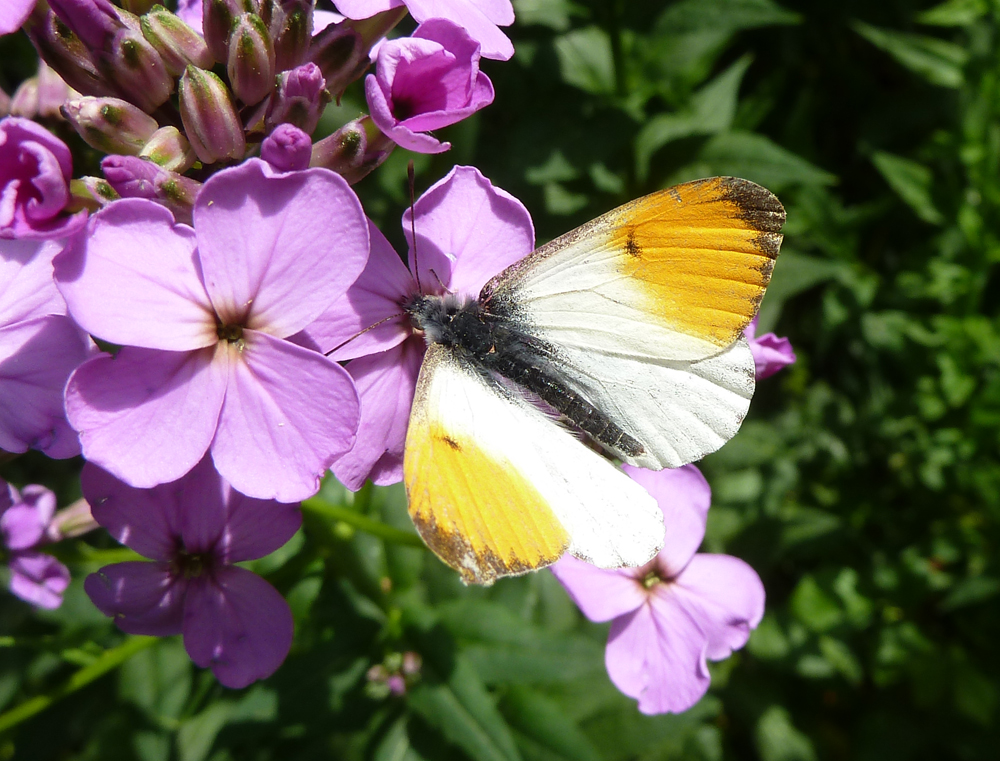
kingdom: Animalia
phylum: Arthropoda
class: Insecta
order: Lepidoptera
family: Pieridae
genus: Anthocharis
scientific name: Anthocharis cardamines
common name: Orange-tip
